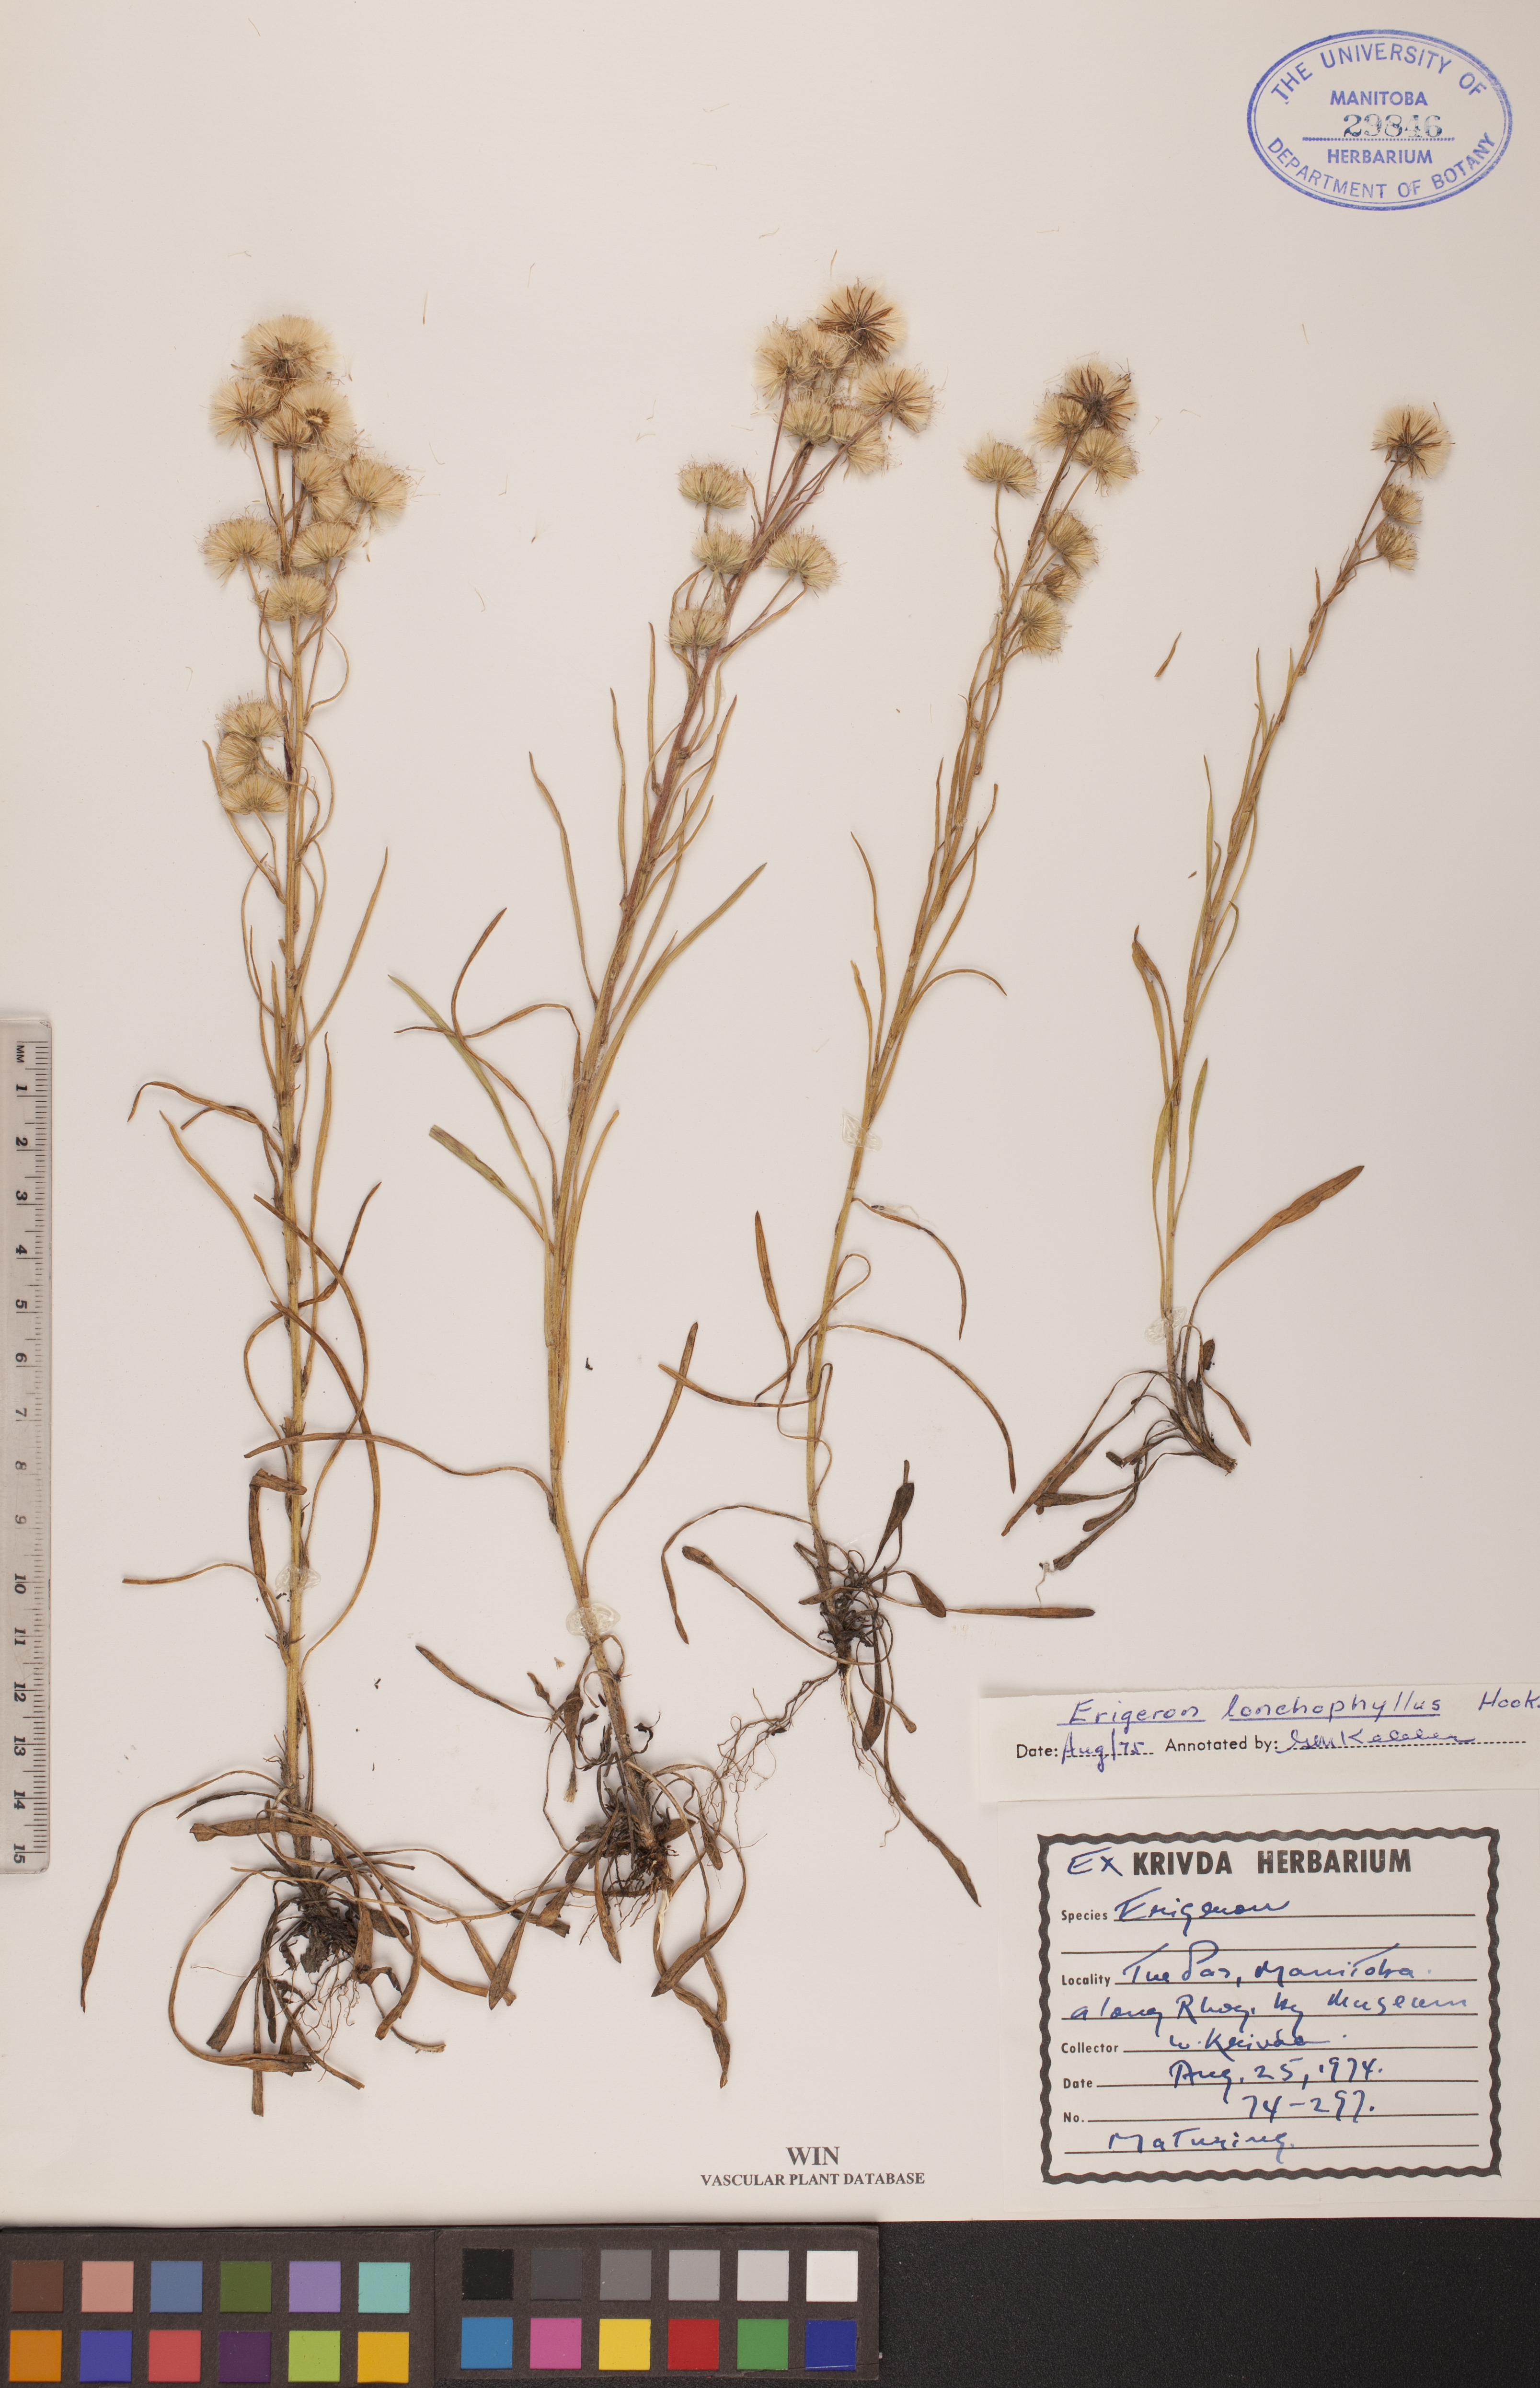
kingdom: Plantae
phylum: Tracheophyta
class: Magnoliopsida
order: Asterales
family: Asteraceae
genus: Erigeron
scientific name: Erigeron lonchophyllus
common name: Short-ray fleabane
